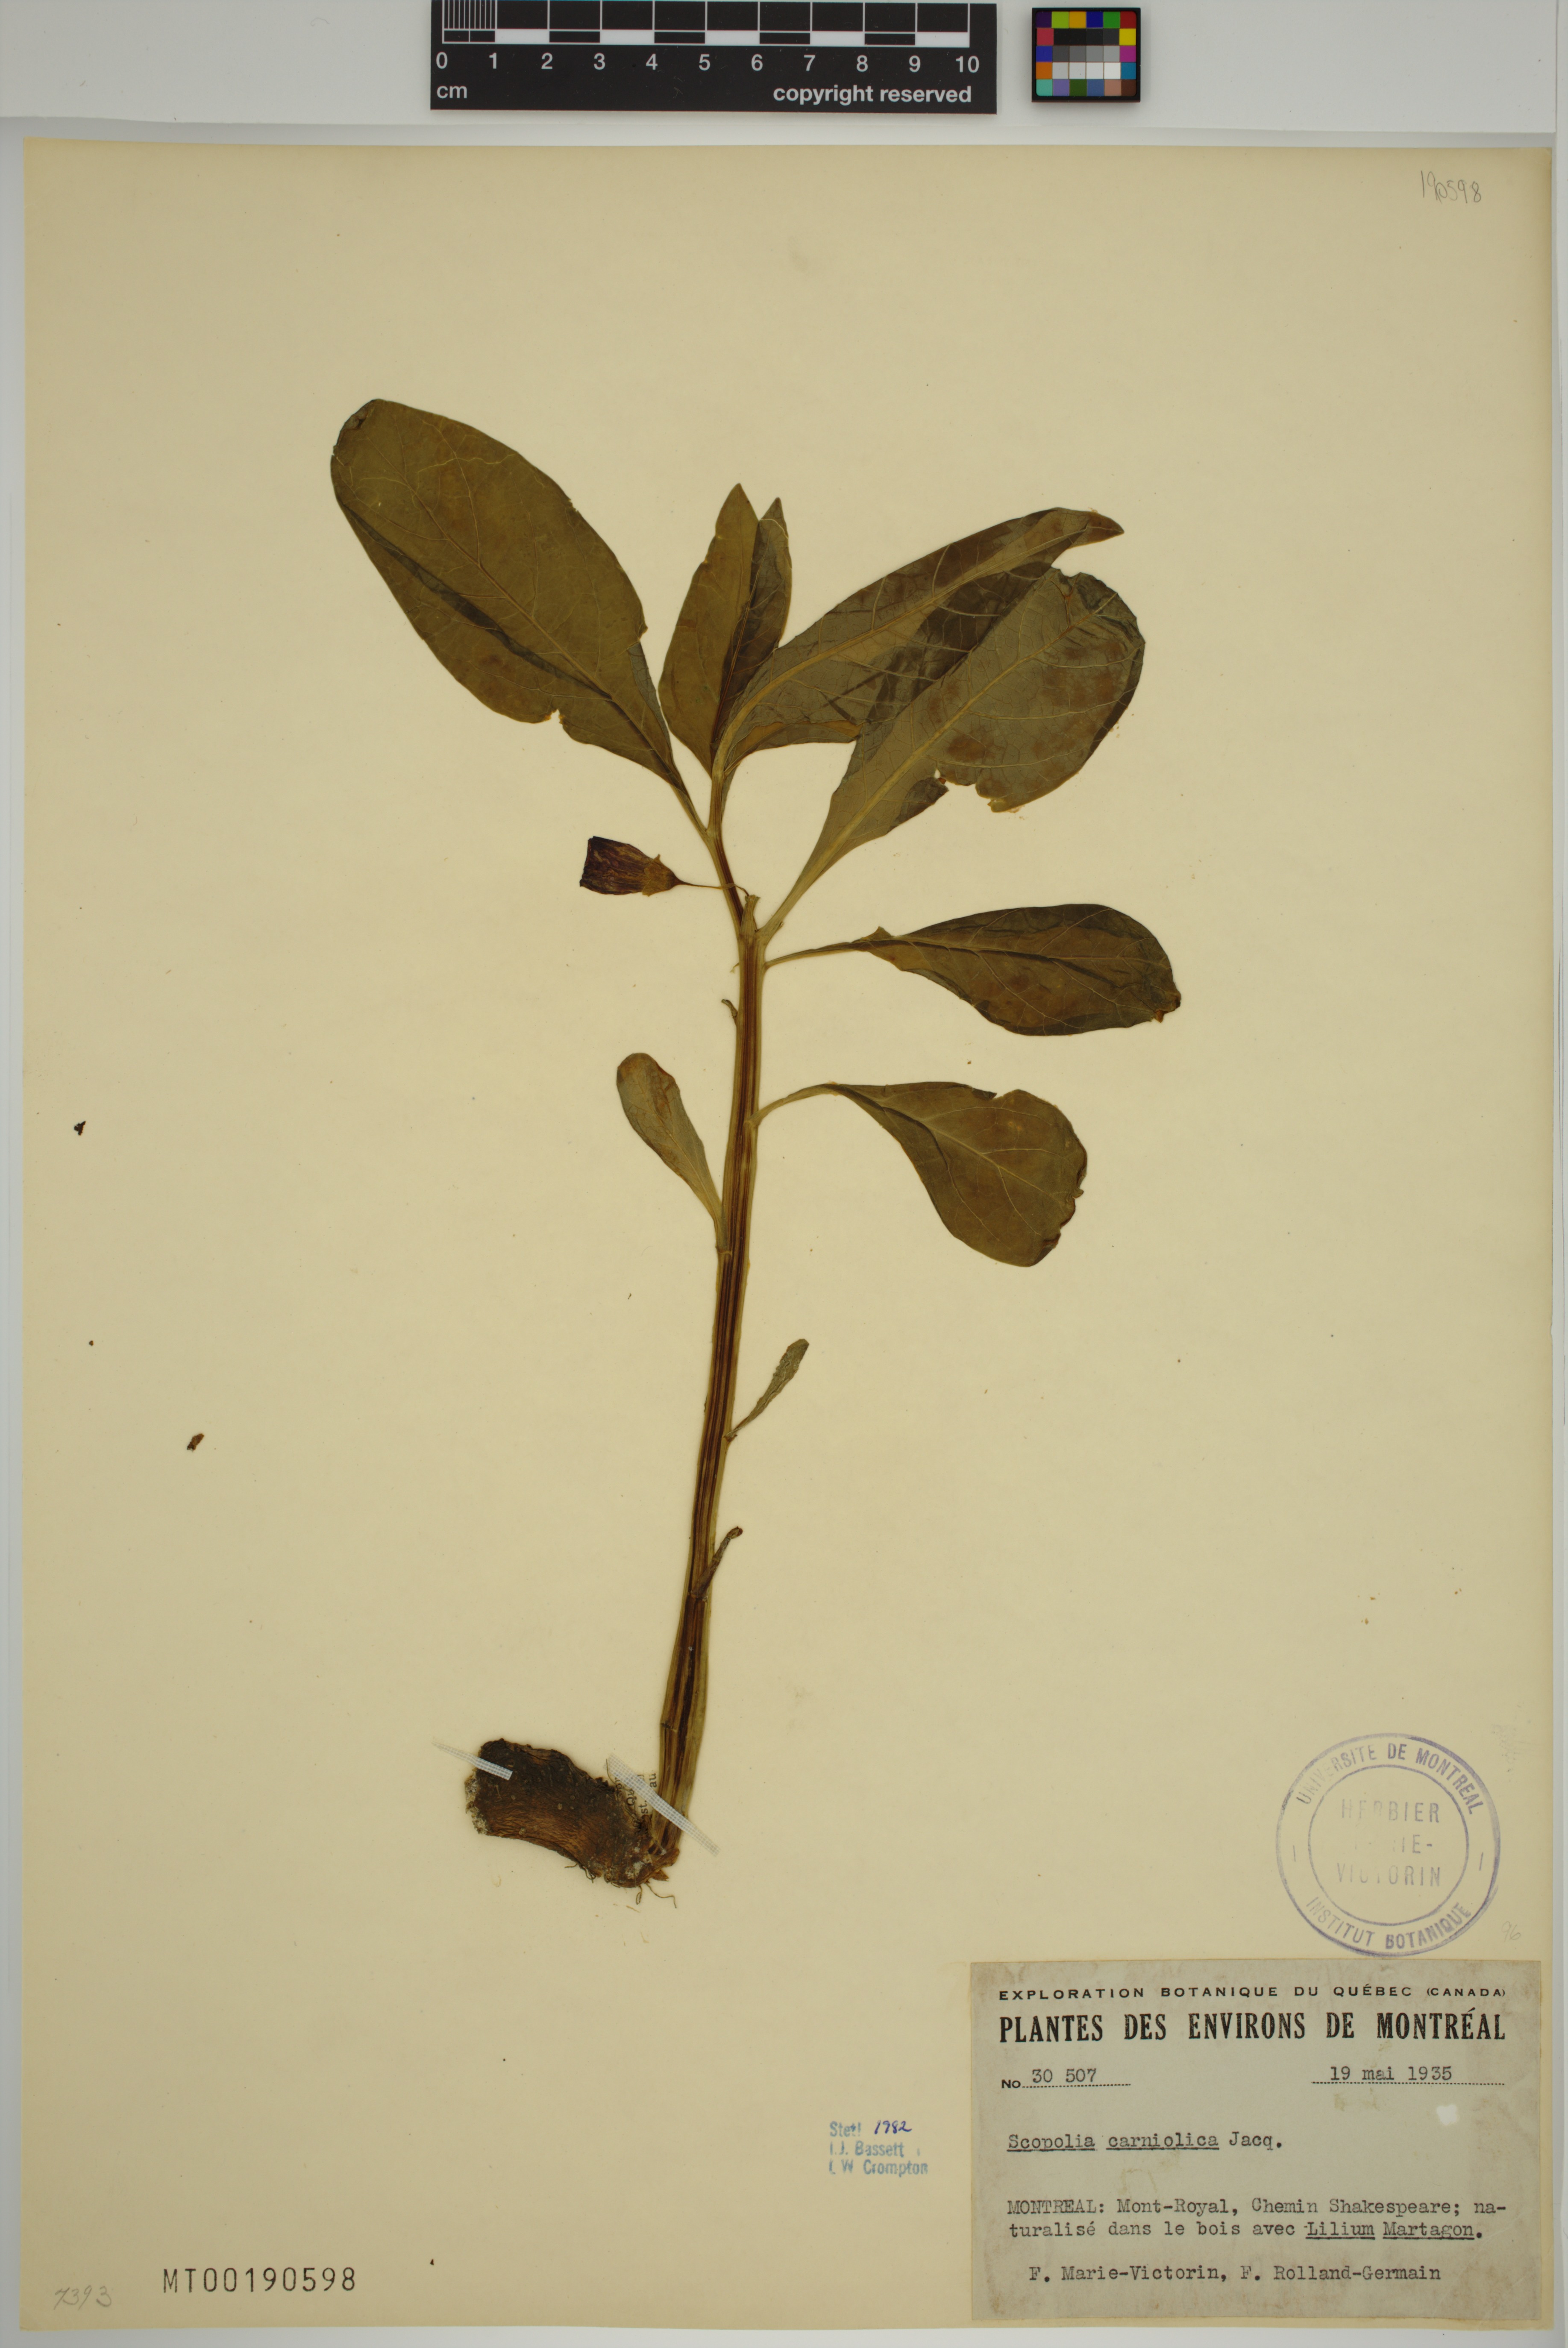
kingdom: Plantae
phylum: Tracheophyta
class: Magnoliopsida
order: Solanales
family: Solanaceae
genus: Scopolia
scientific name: Scopolia carniolica
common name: Scopolia
